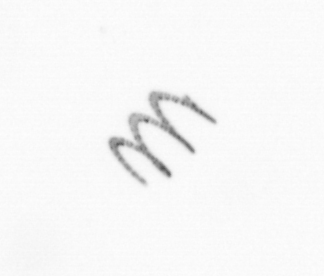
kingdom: Chromista
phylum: Ochrophyta
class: Bacillariophyceae
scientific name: Bacillariophyceae
